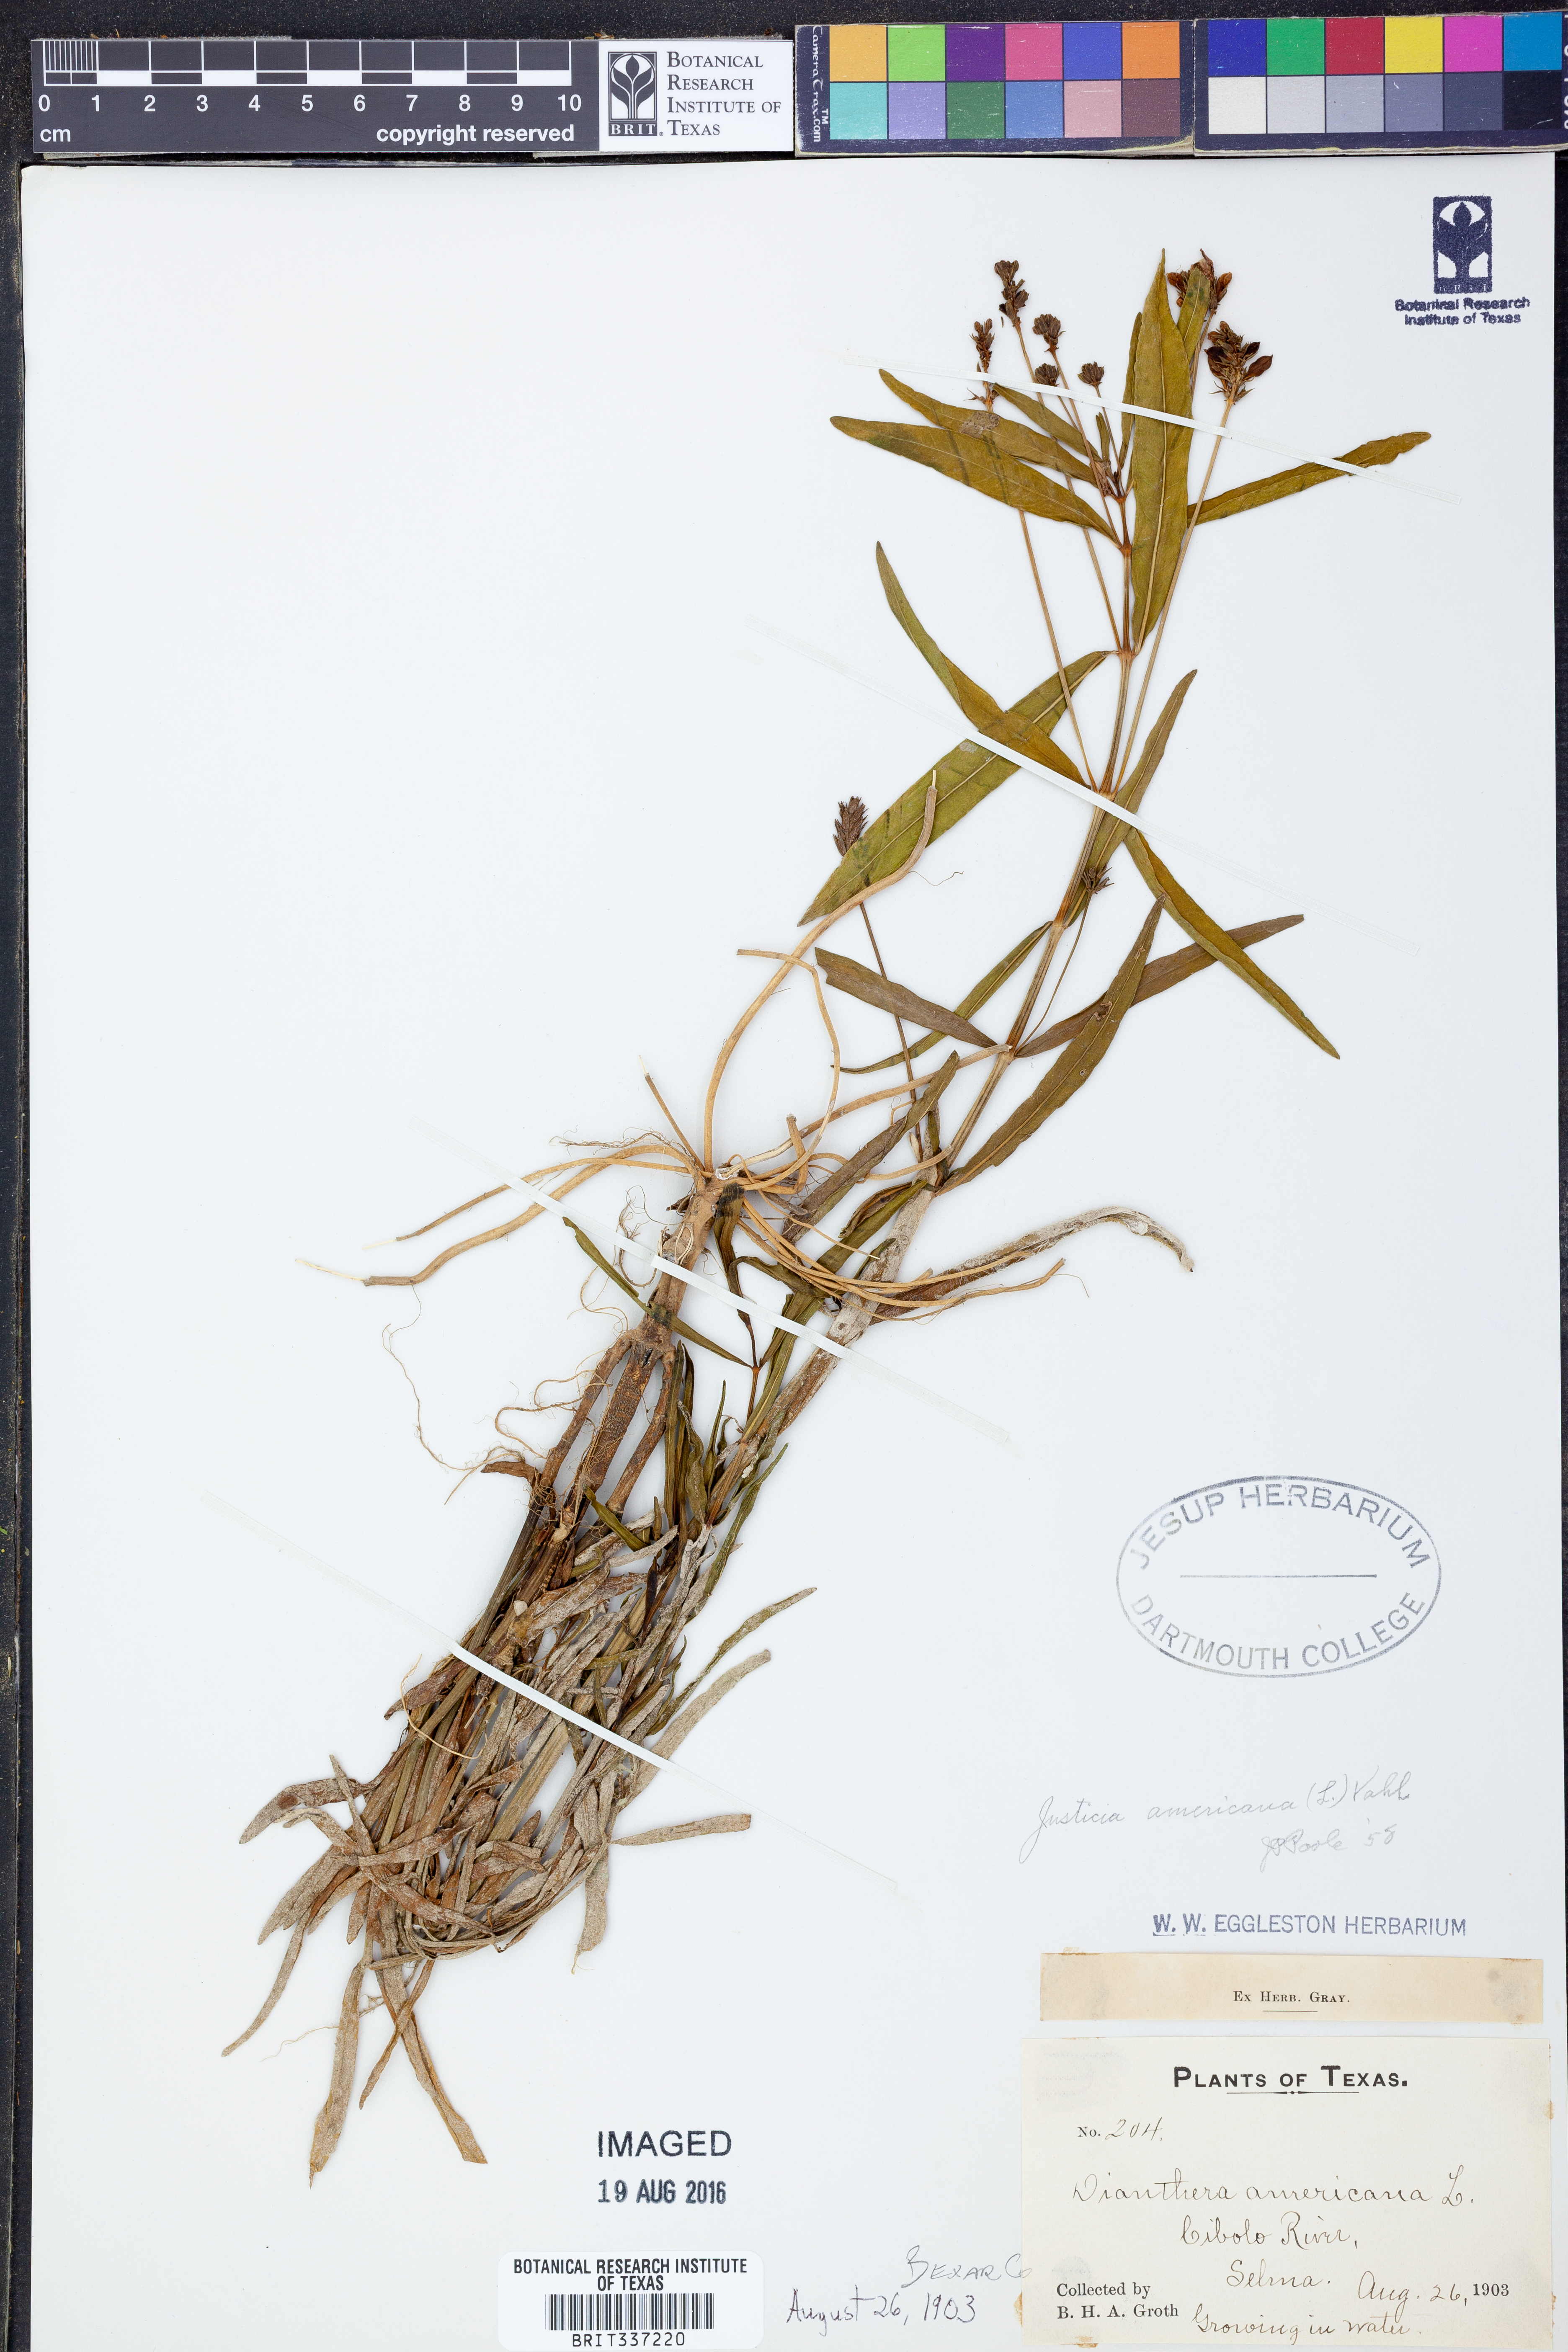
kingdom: Plantae
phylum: Tracheophyta
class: Magnoliopsida
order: Lamiales
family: Acanthaceae
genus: Dianthera
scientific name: Dianthera americana
